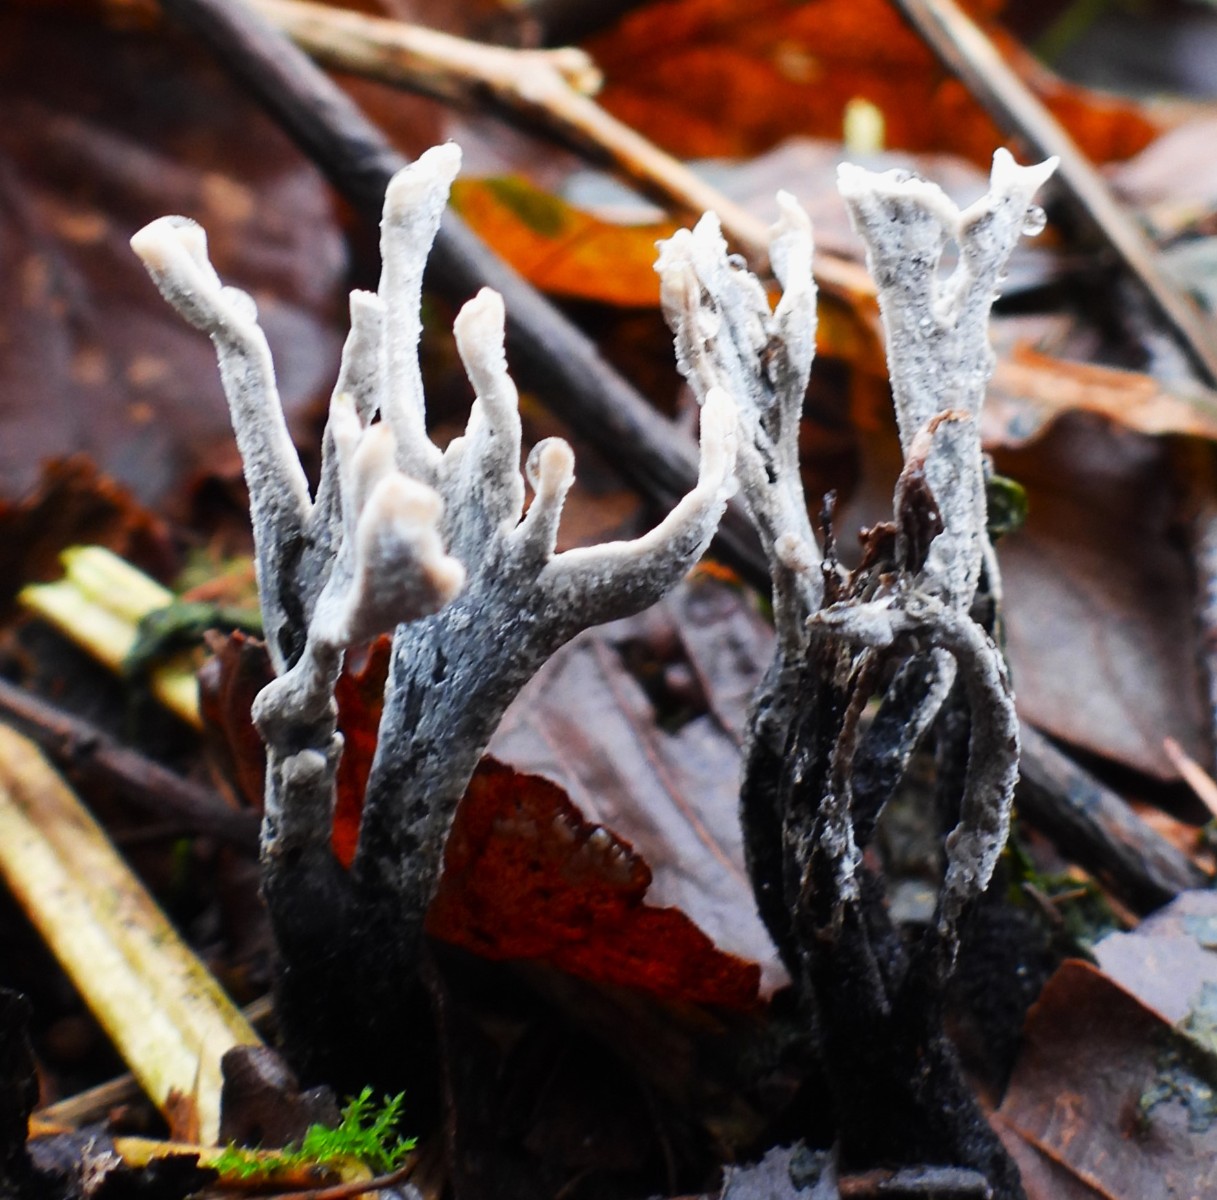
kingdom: Fungi
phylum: Ascomycota
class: Sordariomycetes
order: Xylariales
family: Xylariaceae
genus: Xylaria
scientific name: Xylaria hypoxylon
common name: grenet stødsvamp
